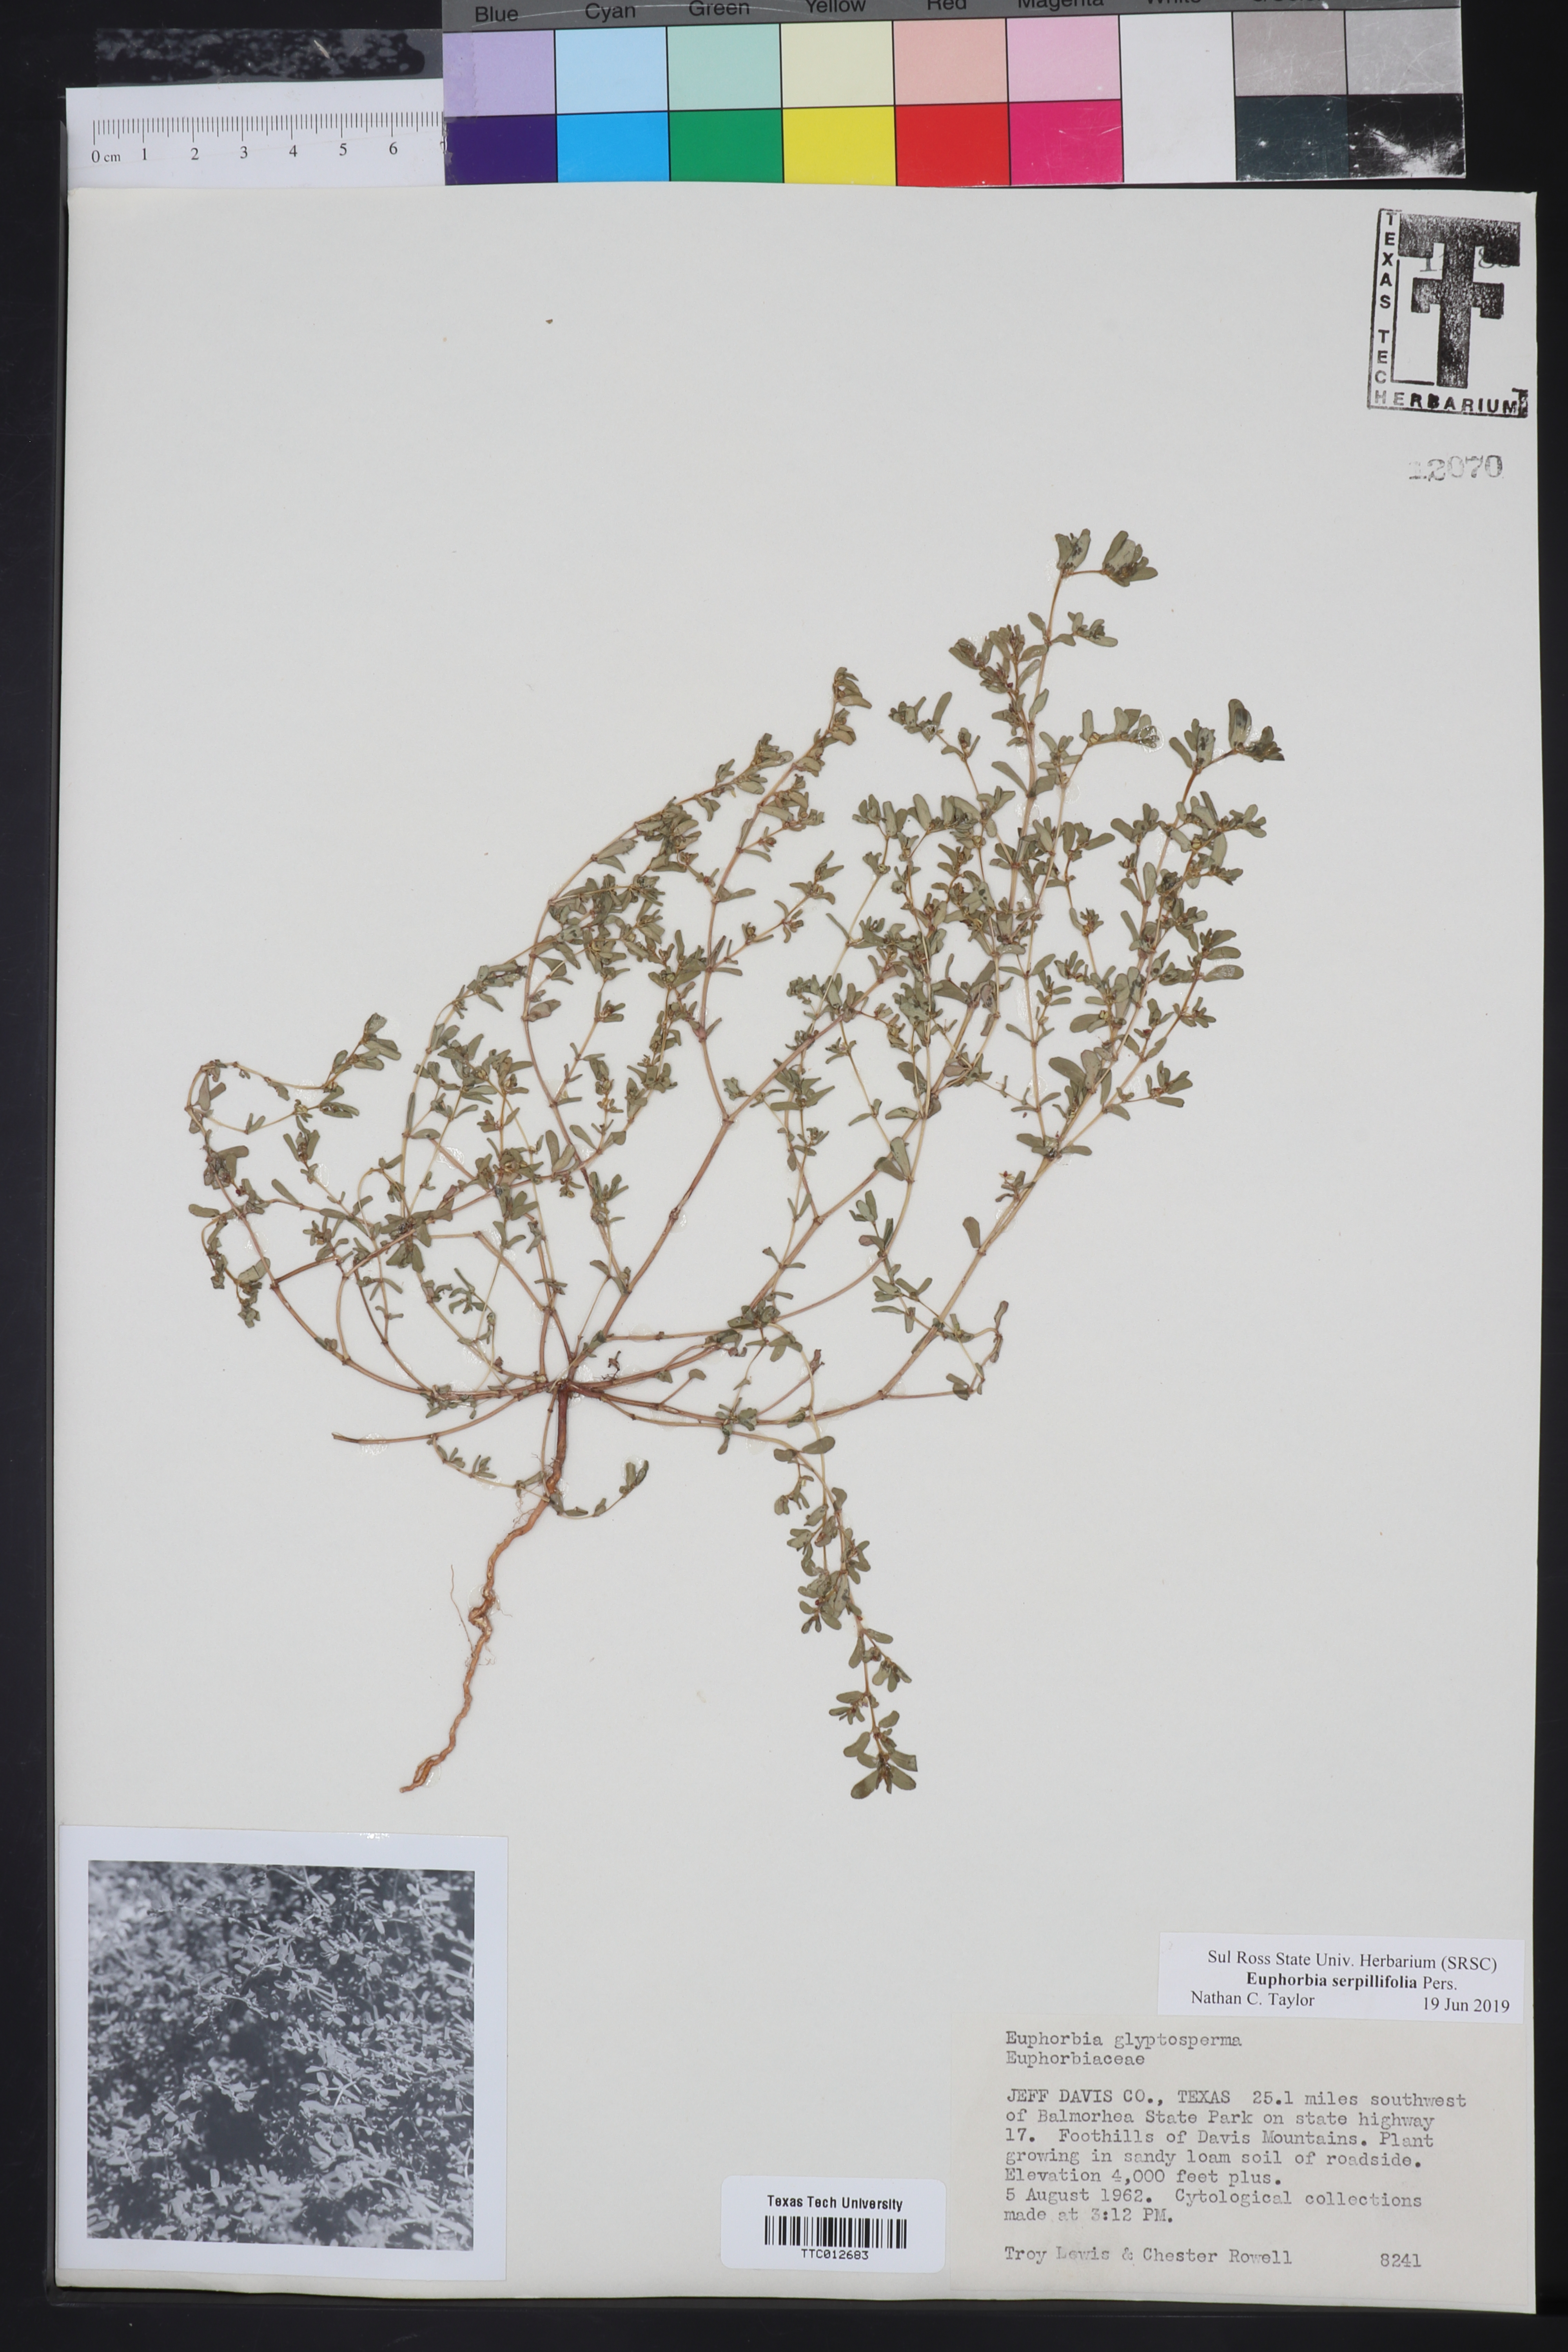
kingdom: Plantae
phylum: Tracheophyta
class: Magnoliopsida
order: Malpighiales
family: Euphorbiaceae
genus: Euphorbia
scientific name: Euphorbia serpillifolia
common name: Thyme-leaf spurge
